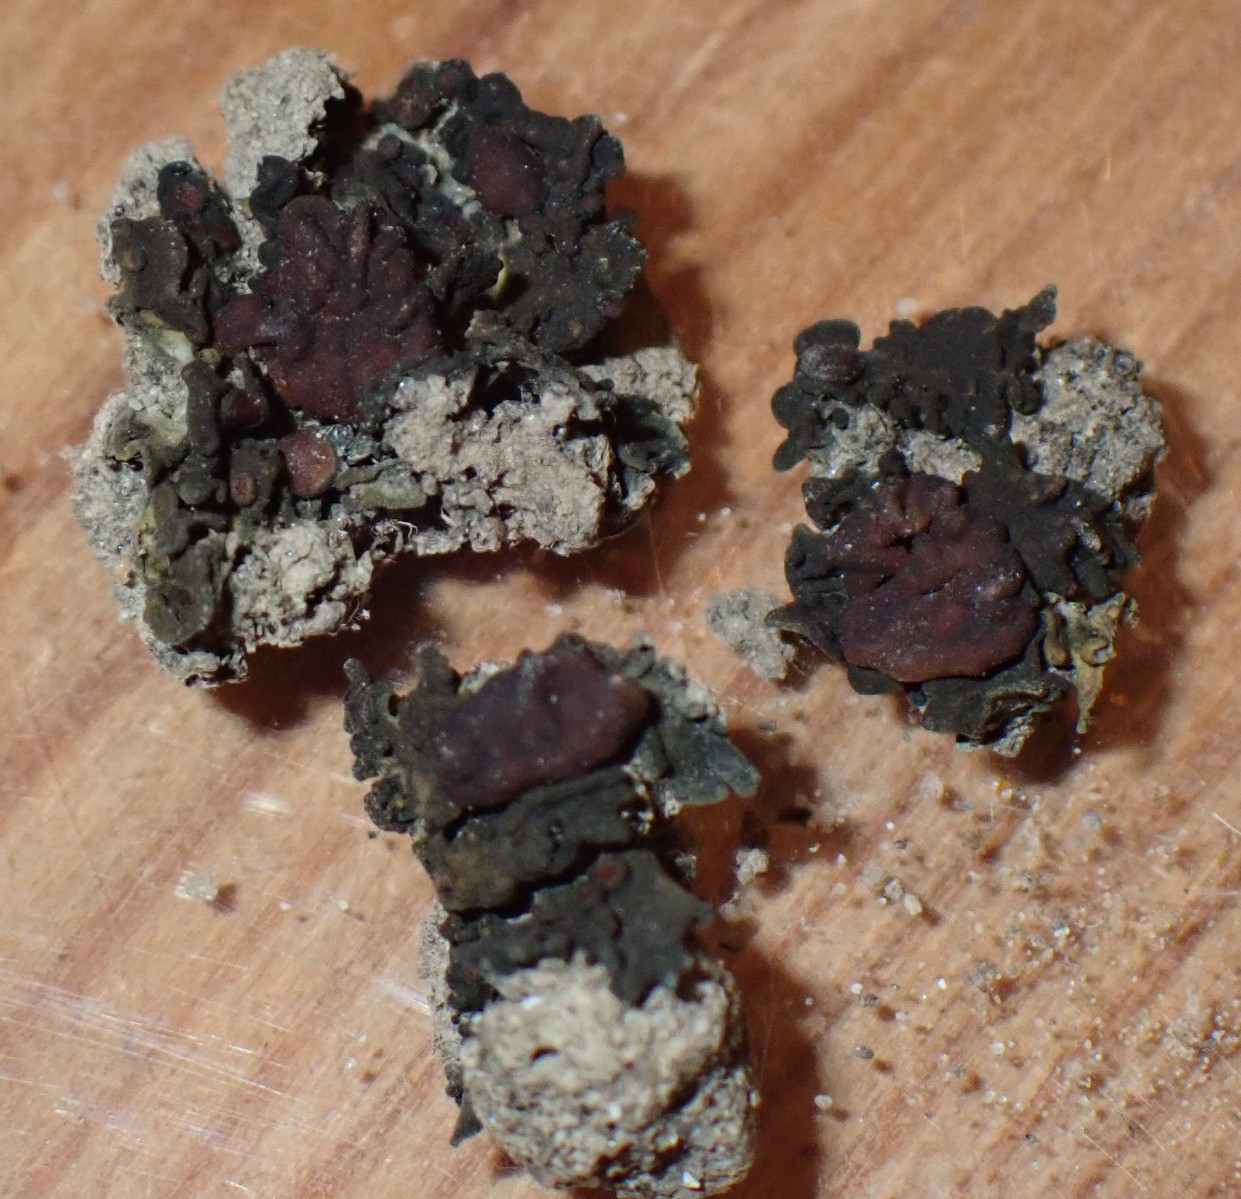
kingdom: Fungi
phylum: Ascomycota
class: Lecanoromycetes
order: Peltigerales
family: Collemataceae
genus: Enchylium
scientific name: Enchylium tenax
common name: tyk bævrelav
